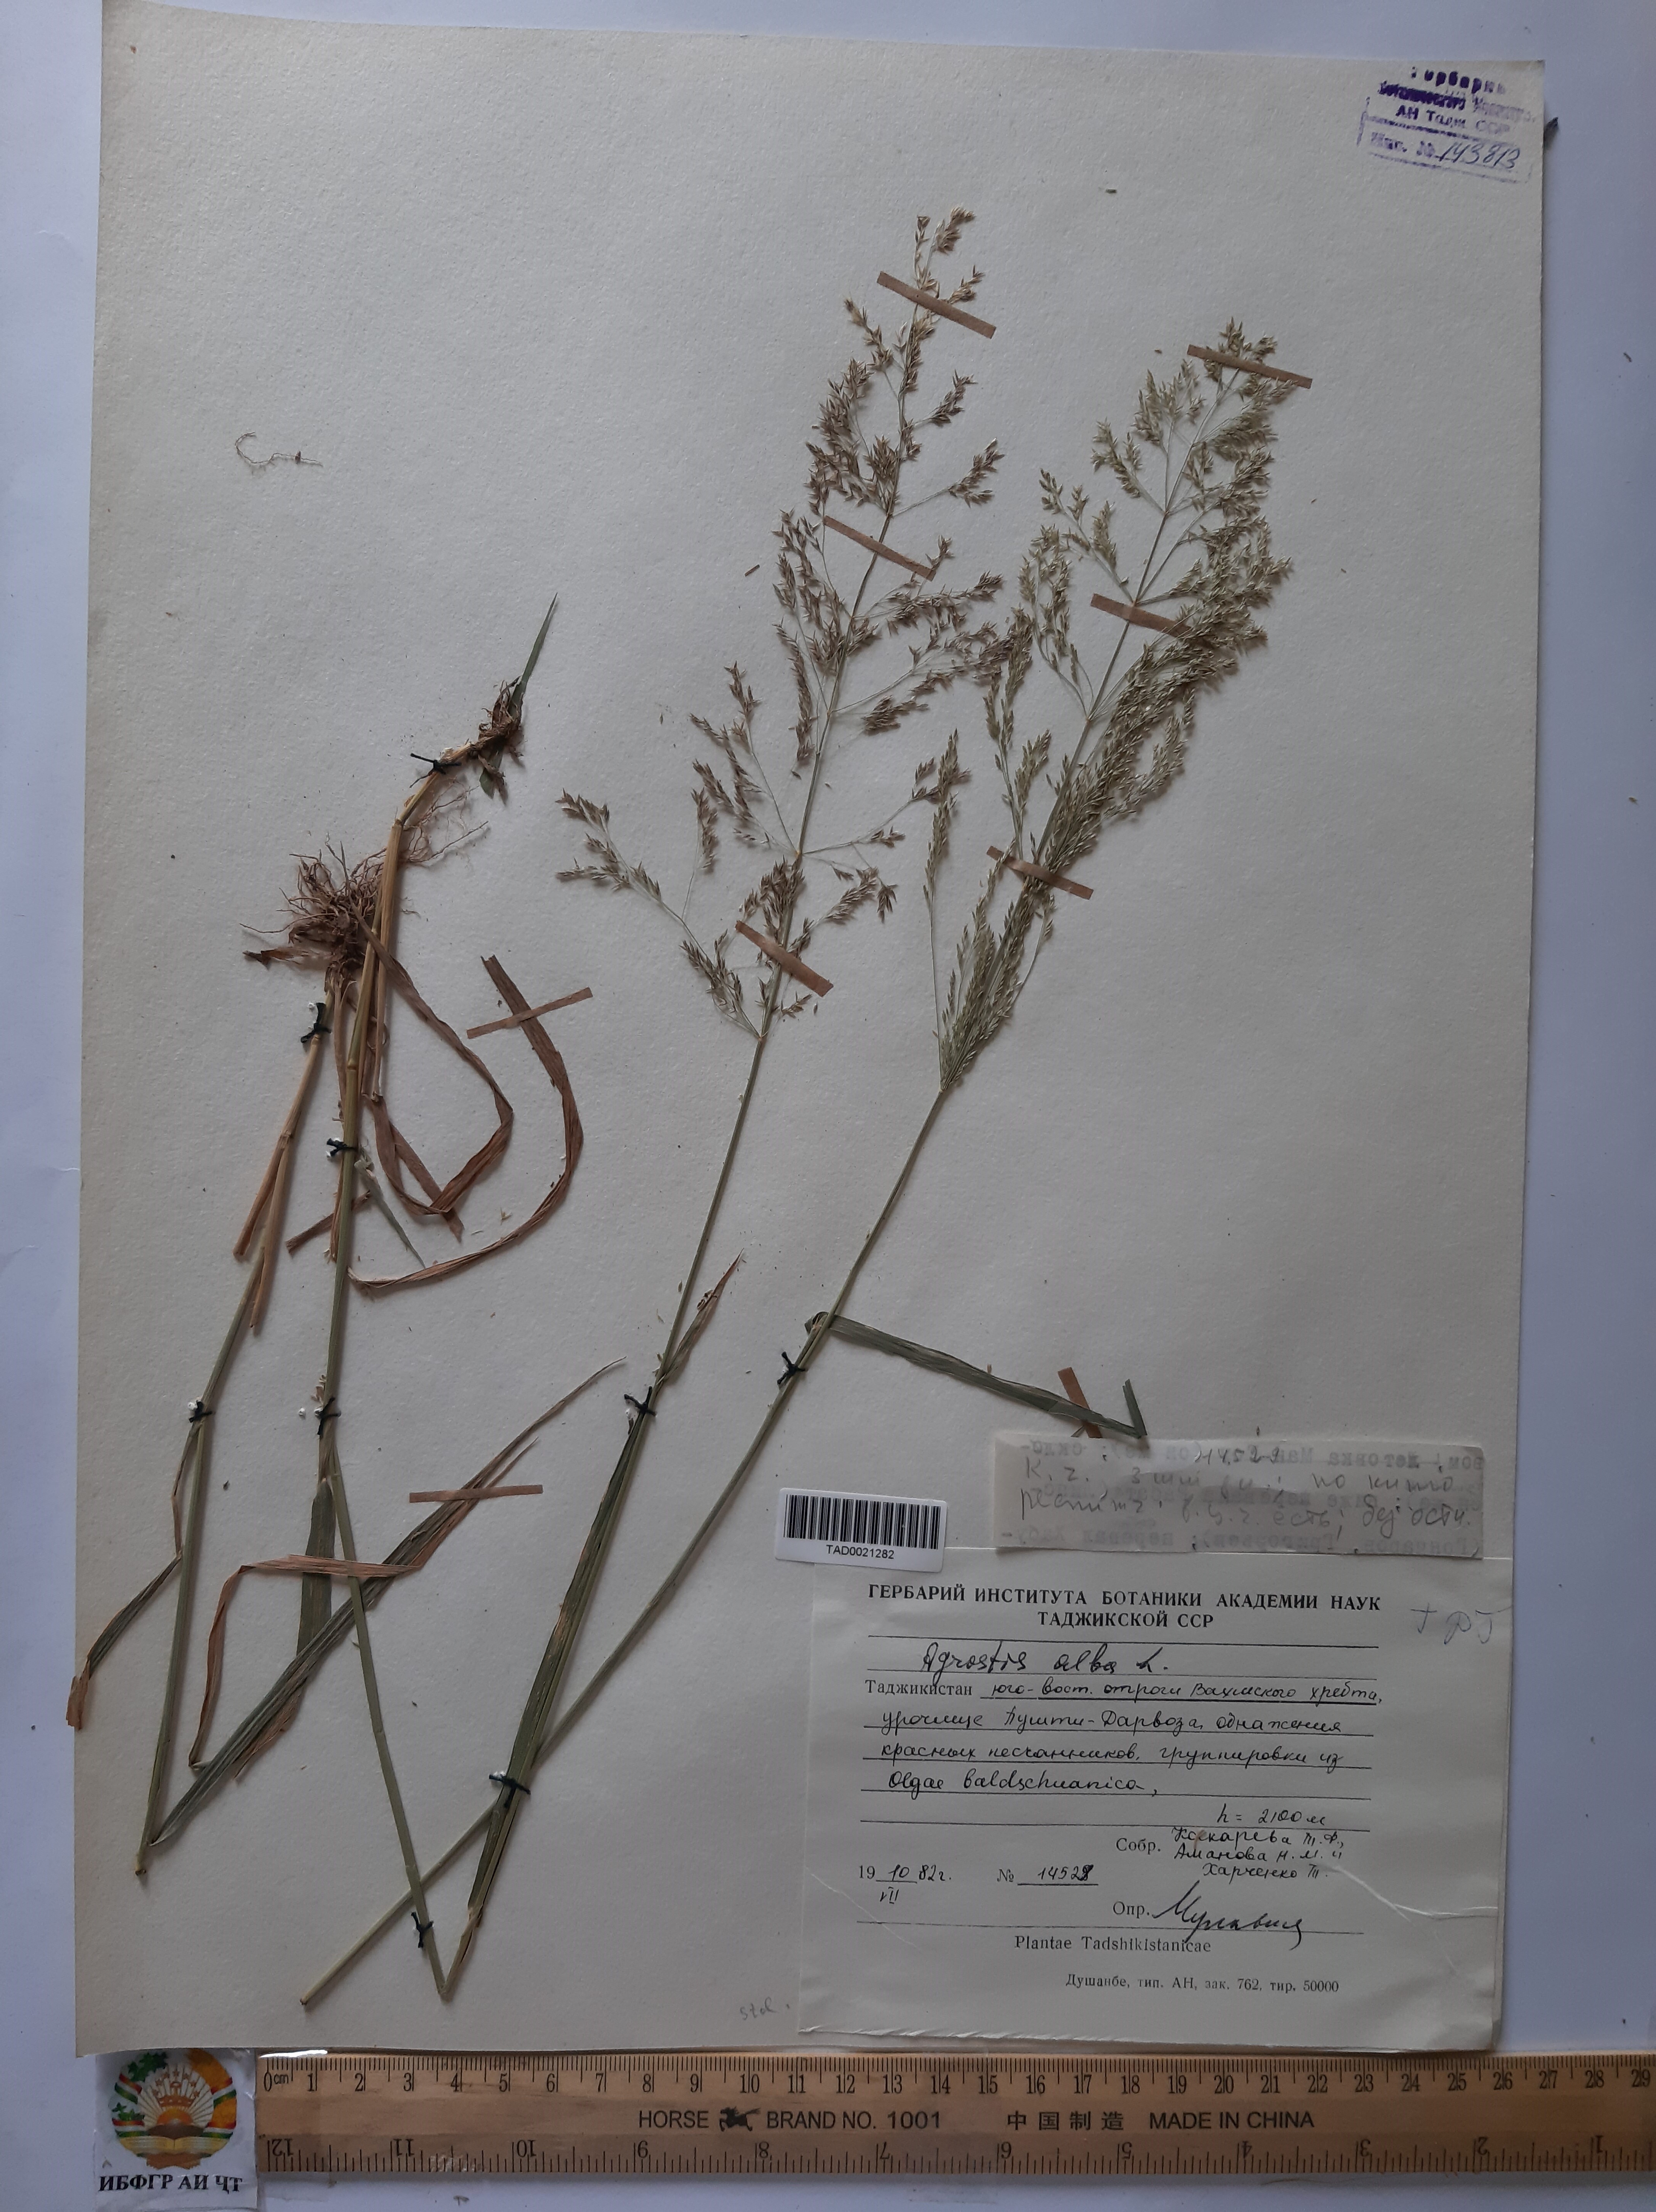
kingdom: Plantae
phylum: Tracheophyta
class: Liliopsida
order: Poales
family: Poaceae
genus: Poa
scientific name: Poa nemoralis
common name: Wood bluegrass
